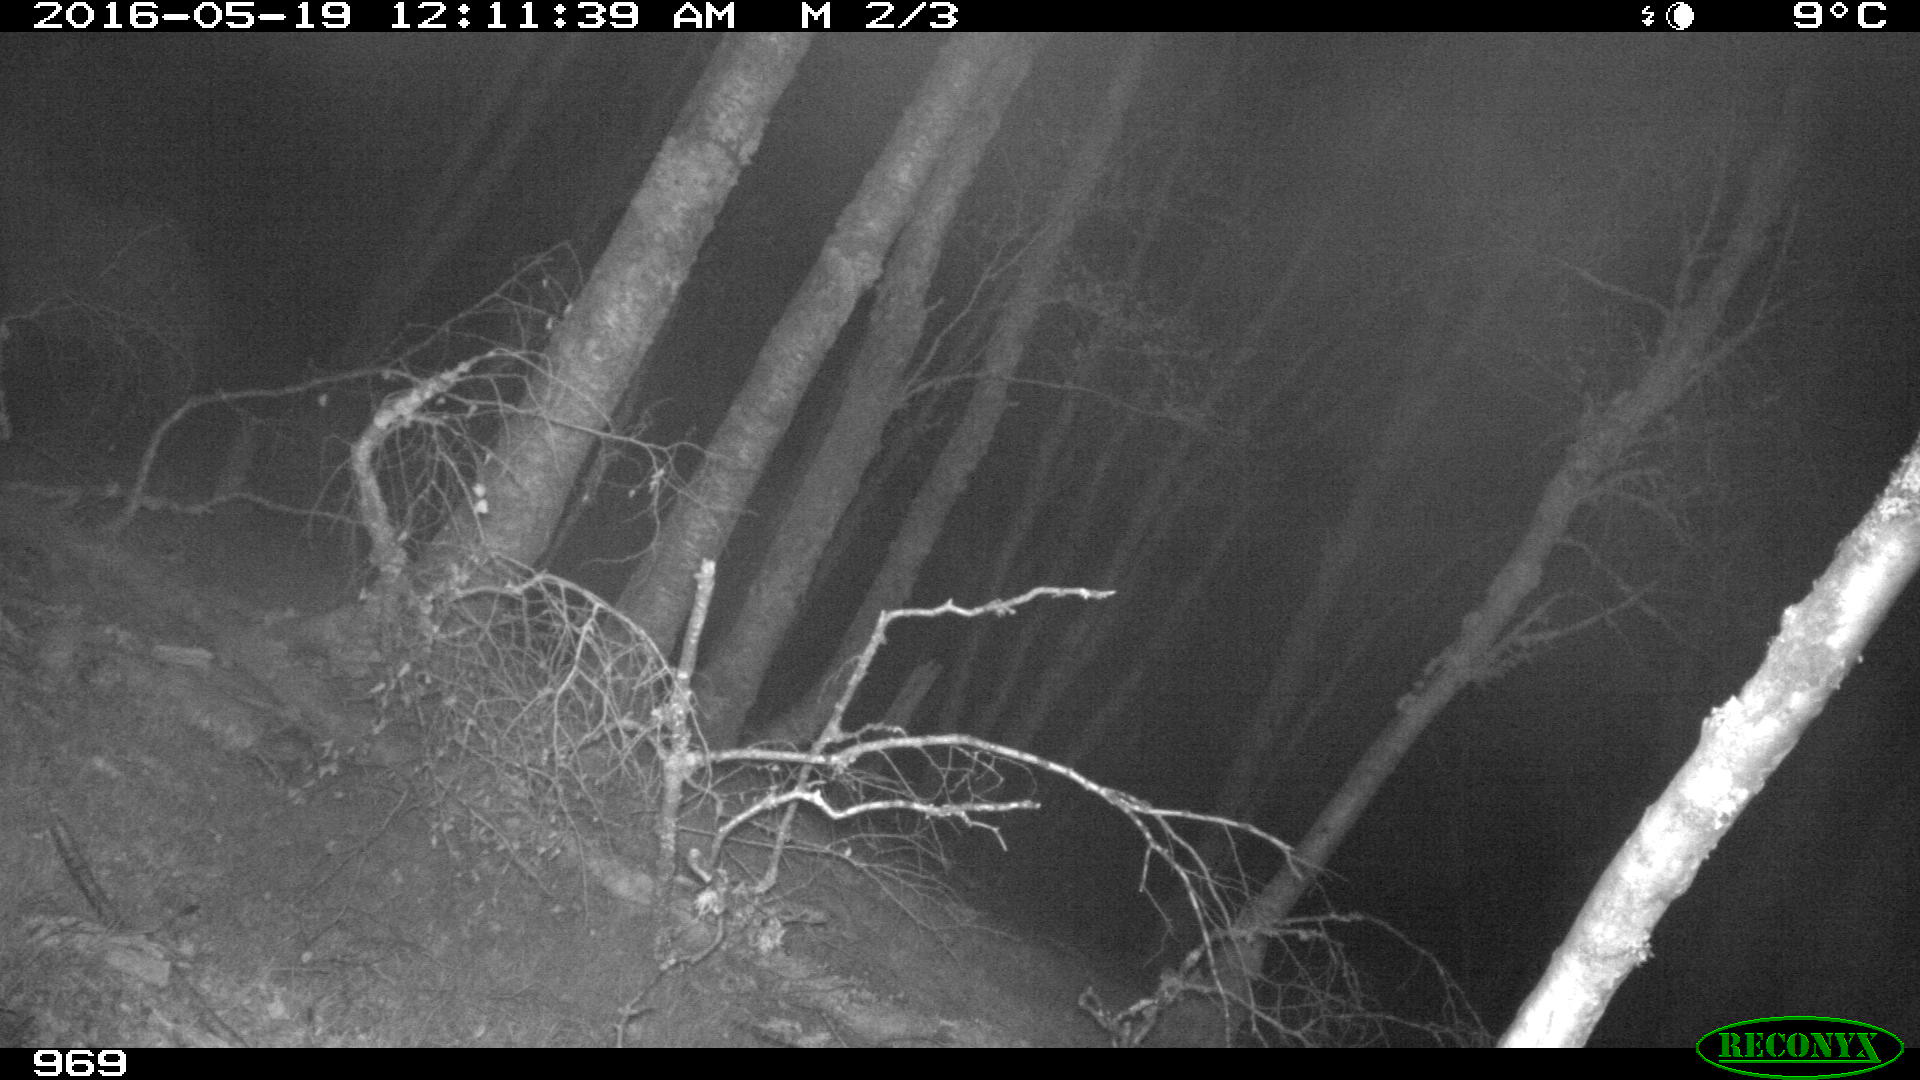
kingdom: Animalia
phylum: Chordata
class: Mammalia
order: Perissodactyla
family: Equidae
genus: Equus
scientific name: Equus caballus
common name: Horse
